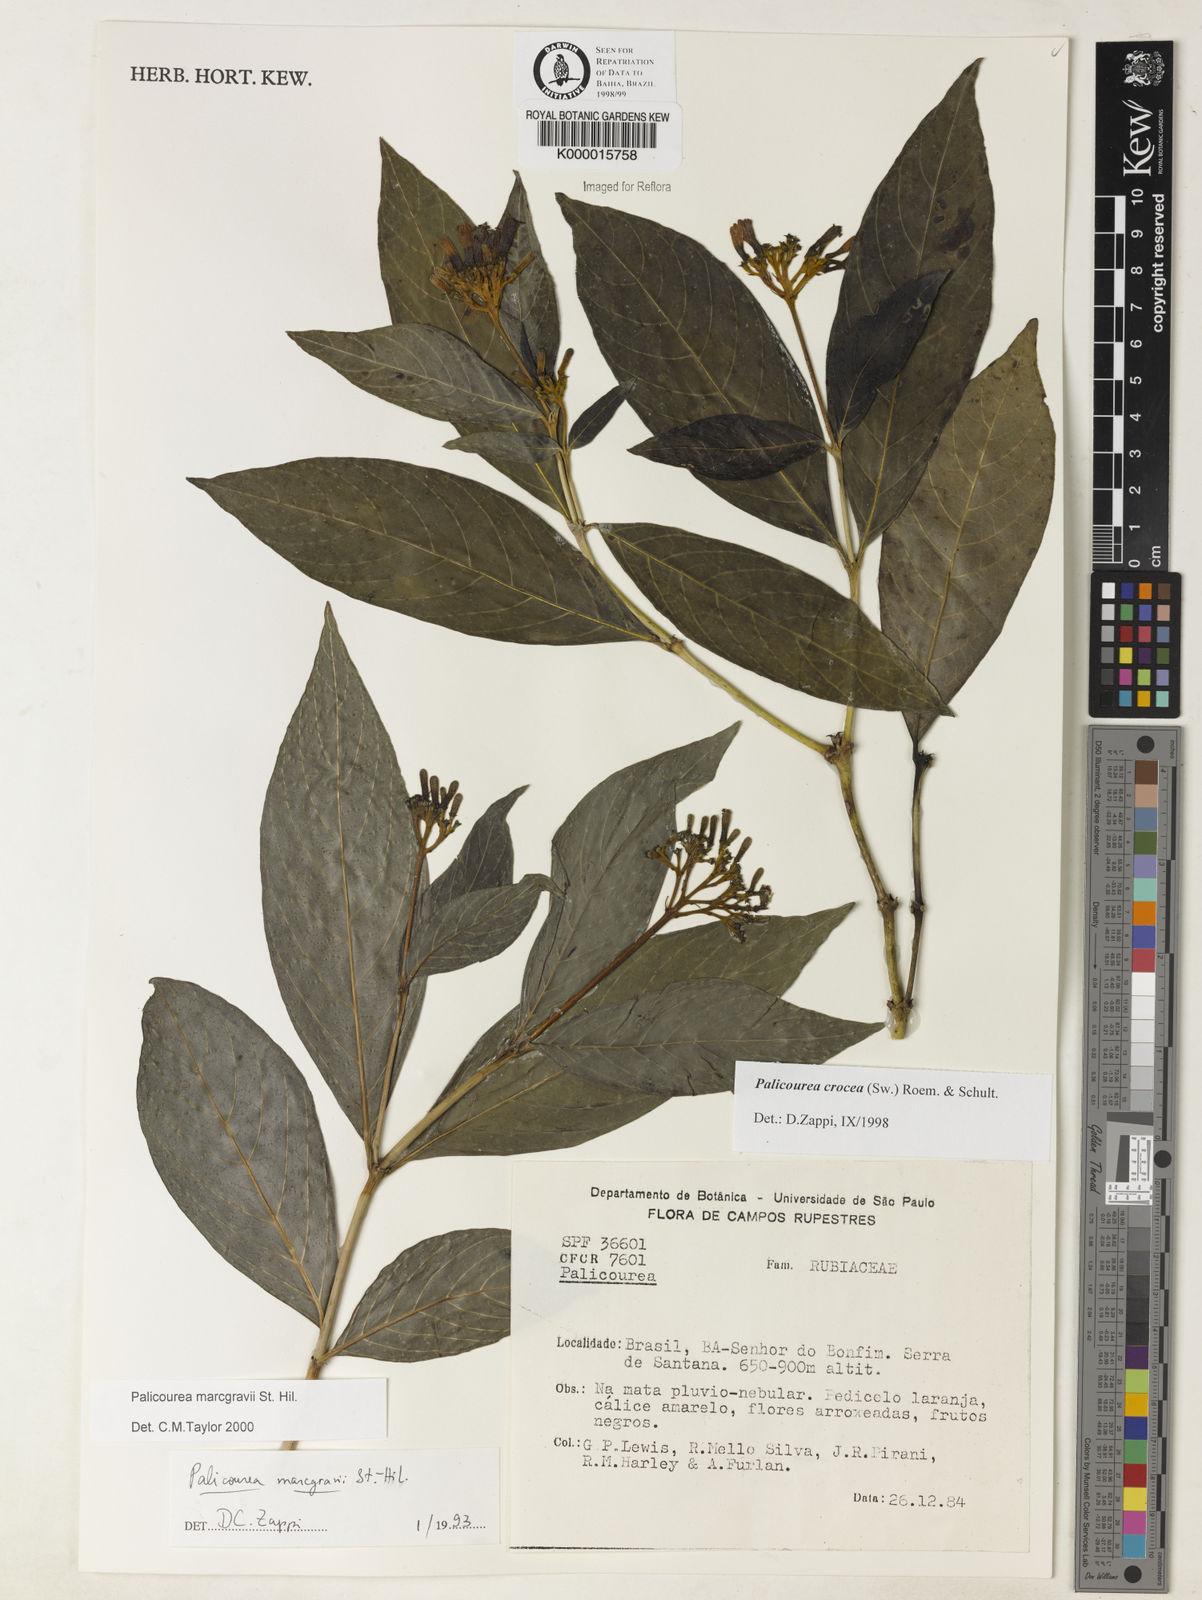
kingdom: Plantae
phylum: Tracheophyta
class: Magnoliopsida
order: Gentianales
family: Rubiaceae
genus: Palicourea
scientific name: Palicourea marcgravii
